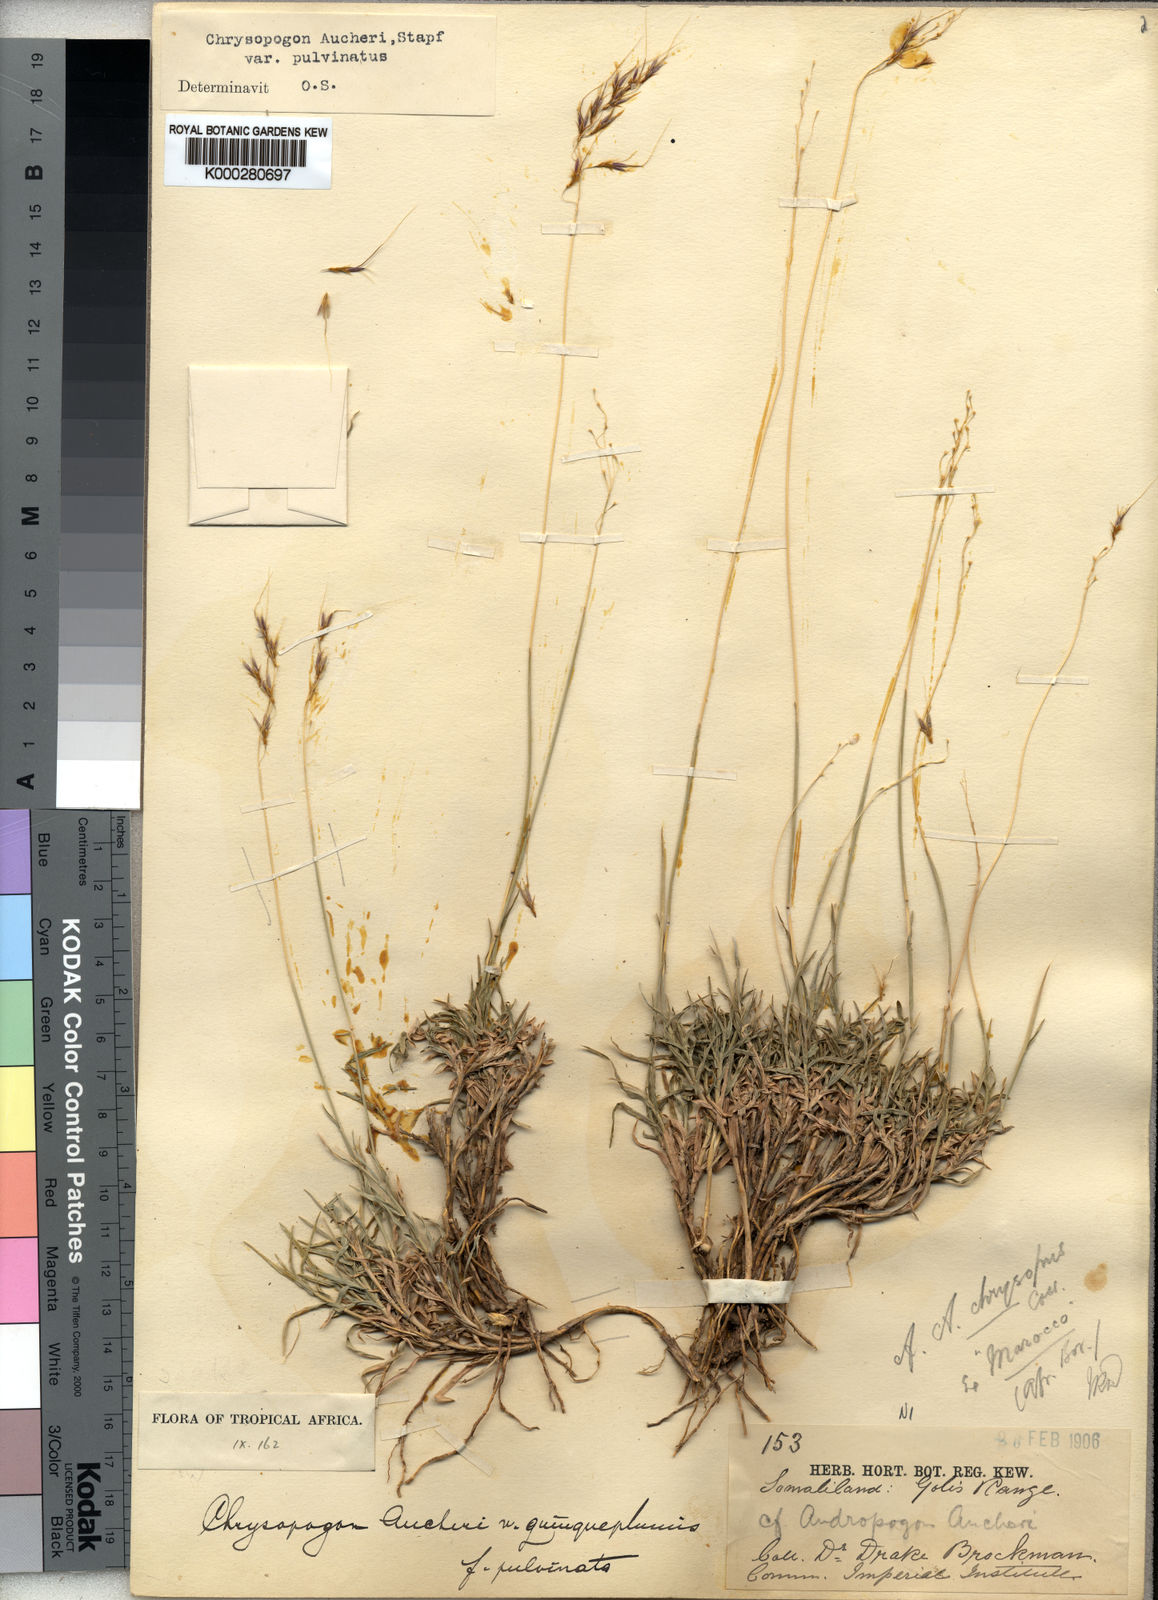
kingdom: Plantae
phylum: Tracheophyta
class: Liliopsida
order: Poales
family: Poaceae
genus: Chrysopogon
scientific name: Chrysopogon plumulosus
